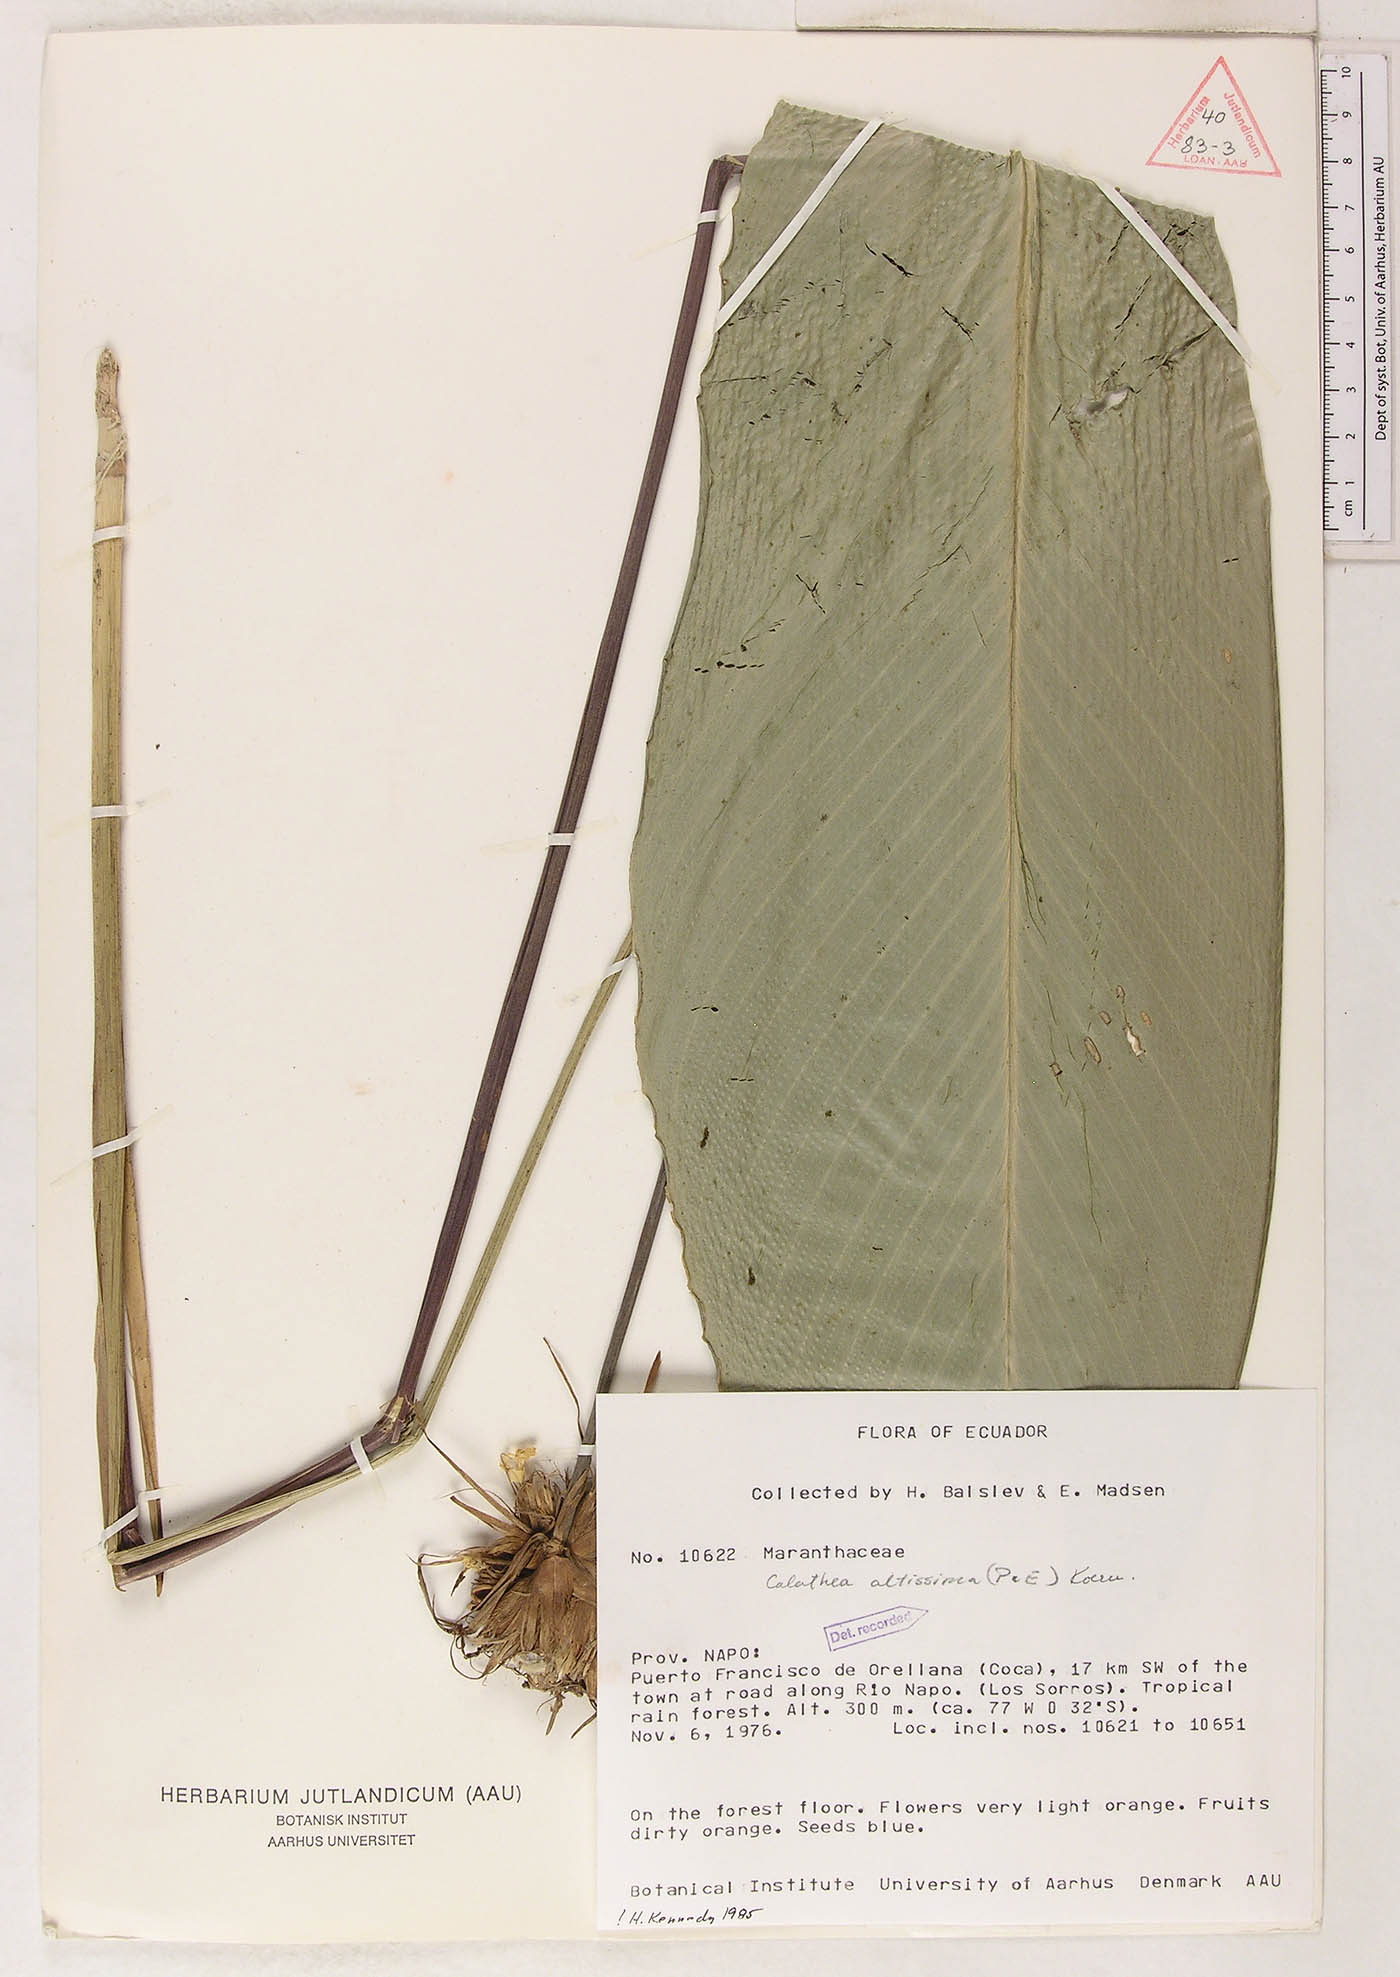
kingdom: Plantae
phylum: Tracheophyta
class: Liliopsida
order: Zingiberales
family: Marantaceae
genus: Goeppertia
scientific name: Goeppertia altissima
